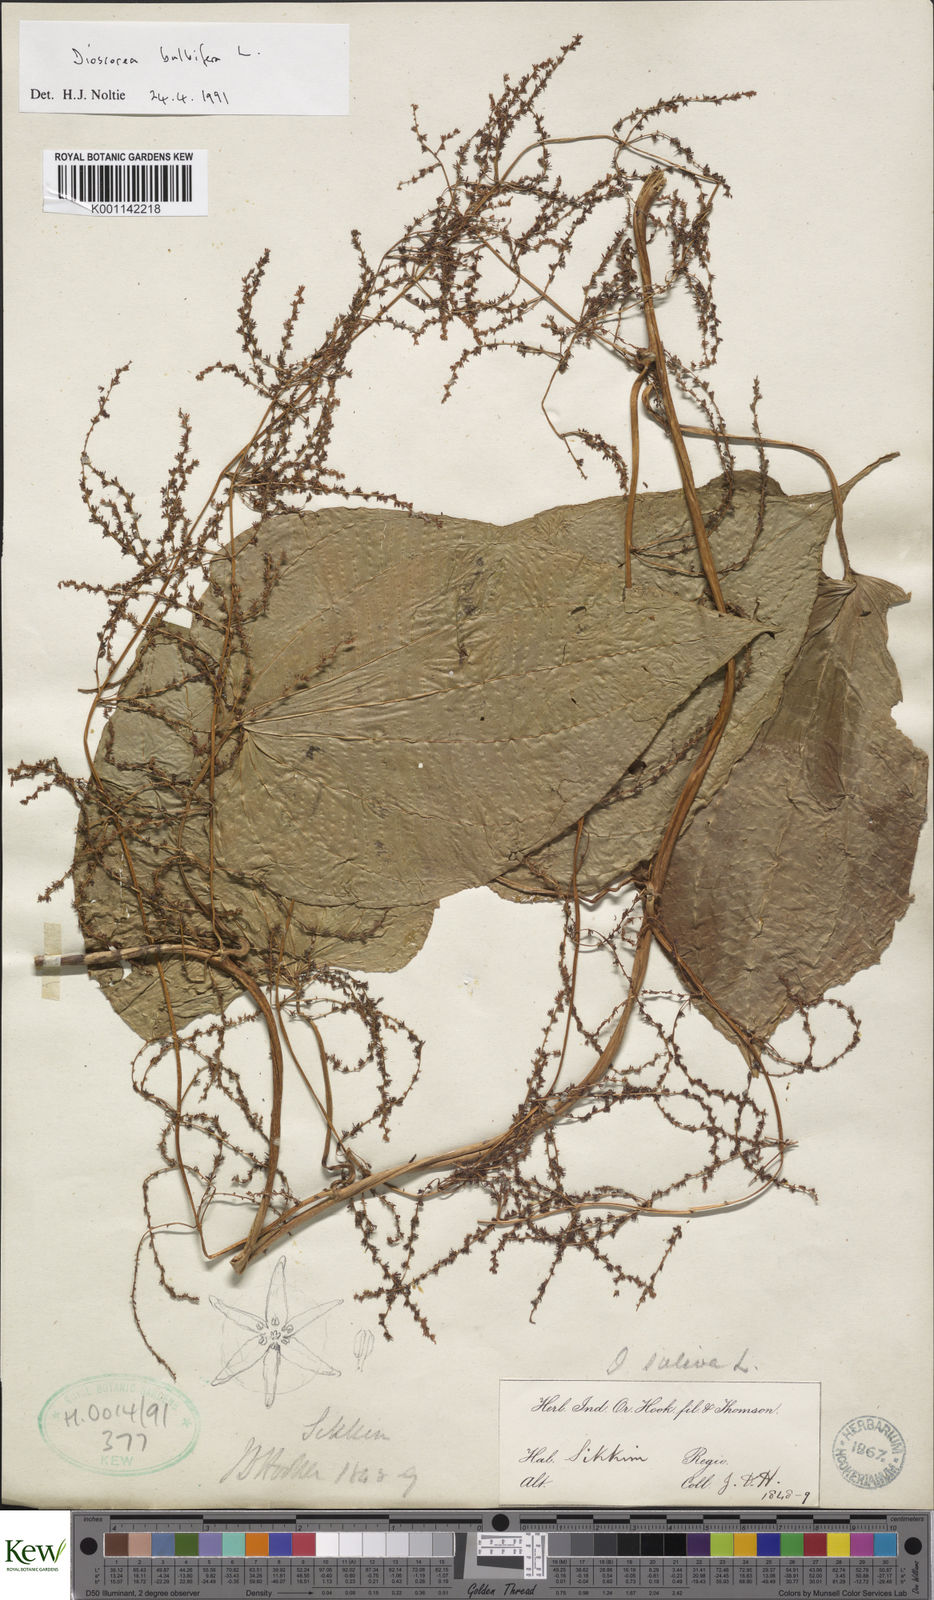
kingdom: Plantae
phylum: Tracheophyta
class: Liliopsida
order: Dioscoreales
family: Dioscoreaceae
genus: Dioscorea
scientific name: Dioscorea bulbifera
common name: Air yam
